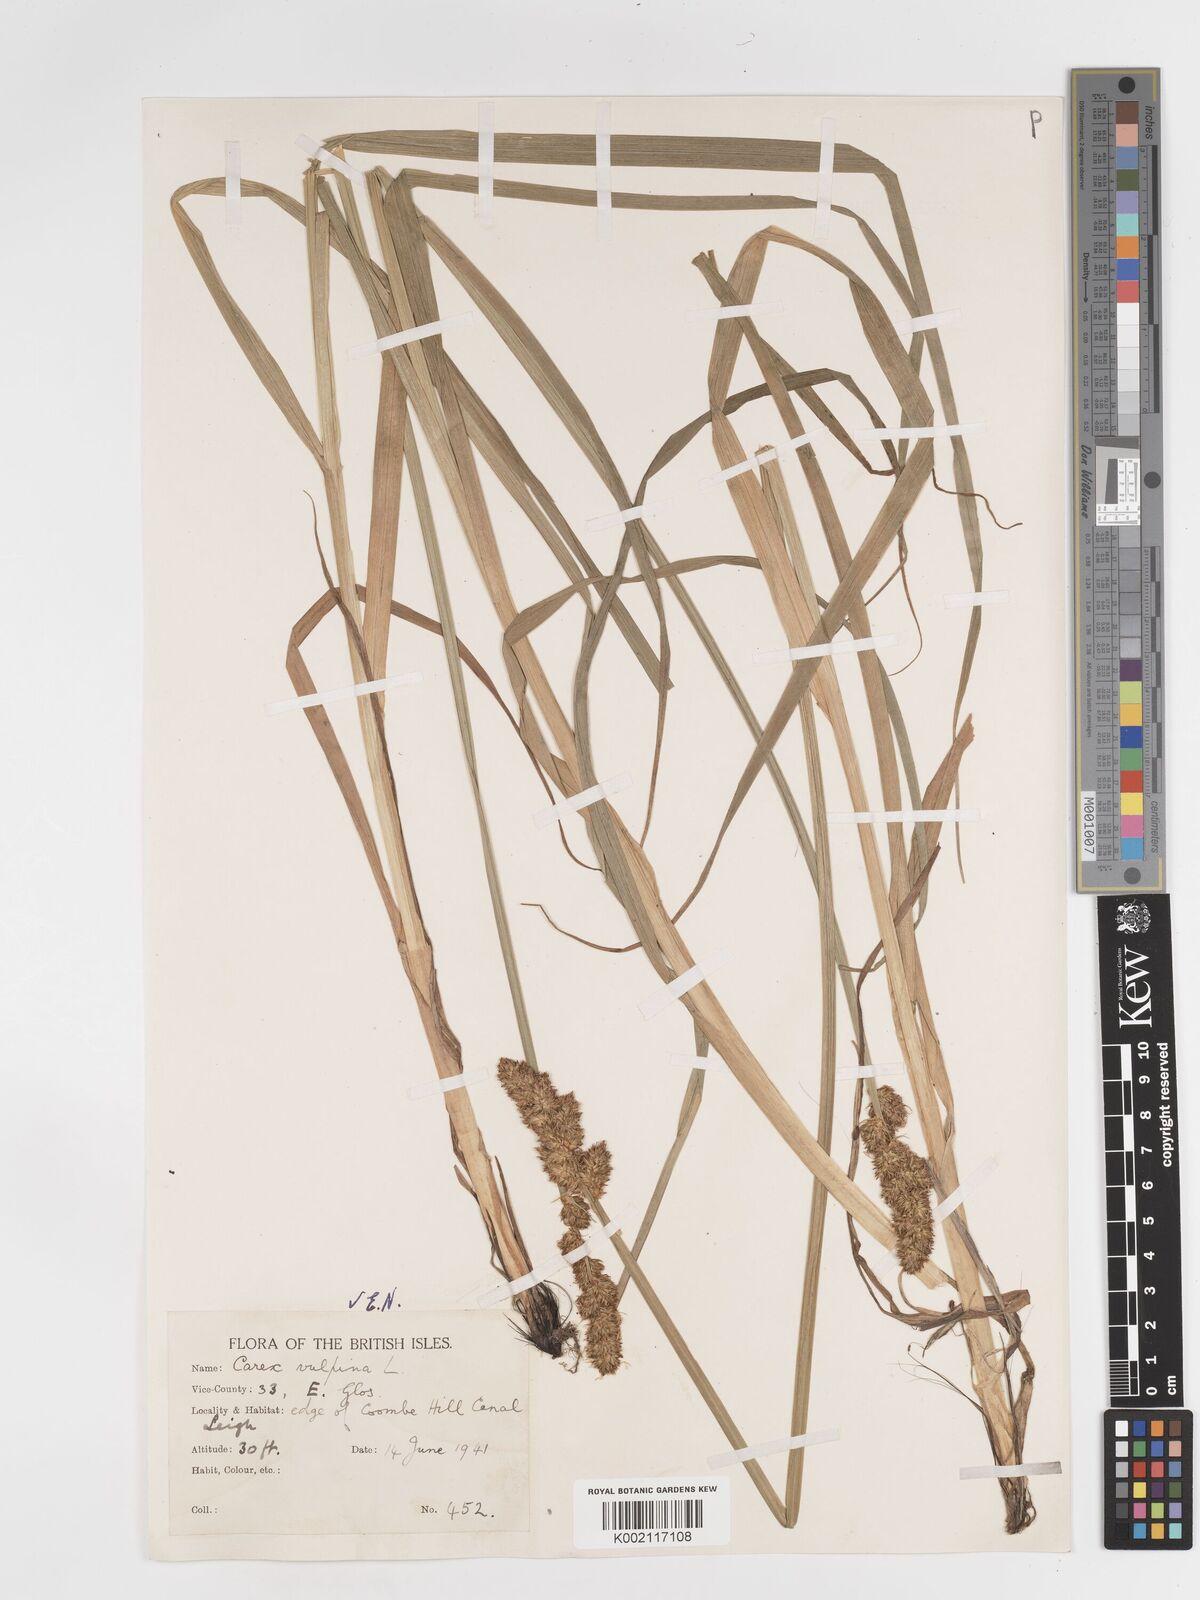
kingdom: Plantae
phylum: Tracheophyta
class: Liliopsida
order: Poales
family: Cyperaceae
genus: Carex
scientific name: Carex vulpina
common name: True fox-sedge
